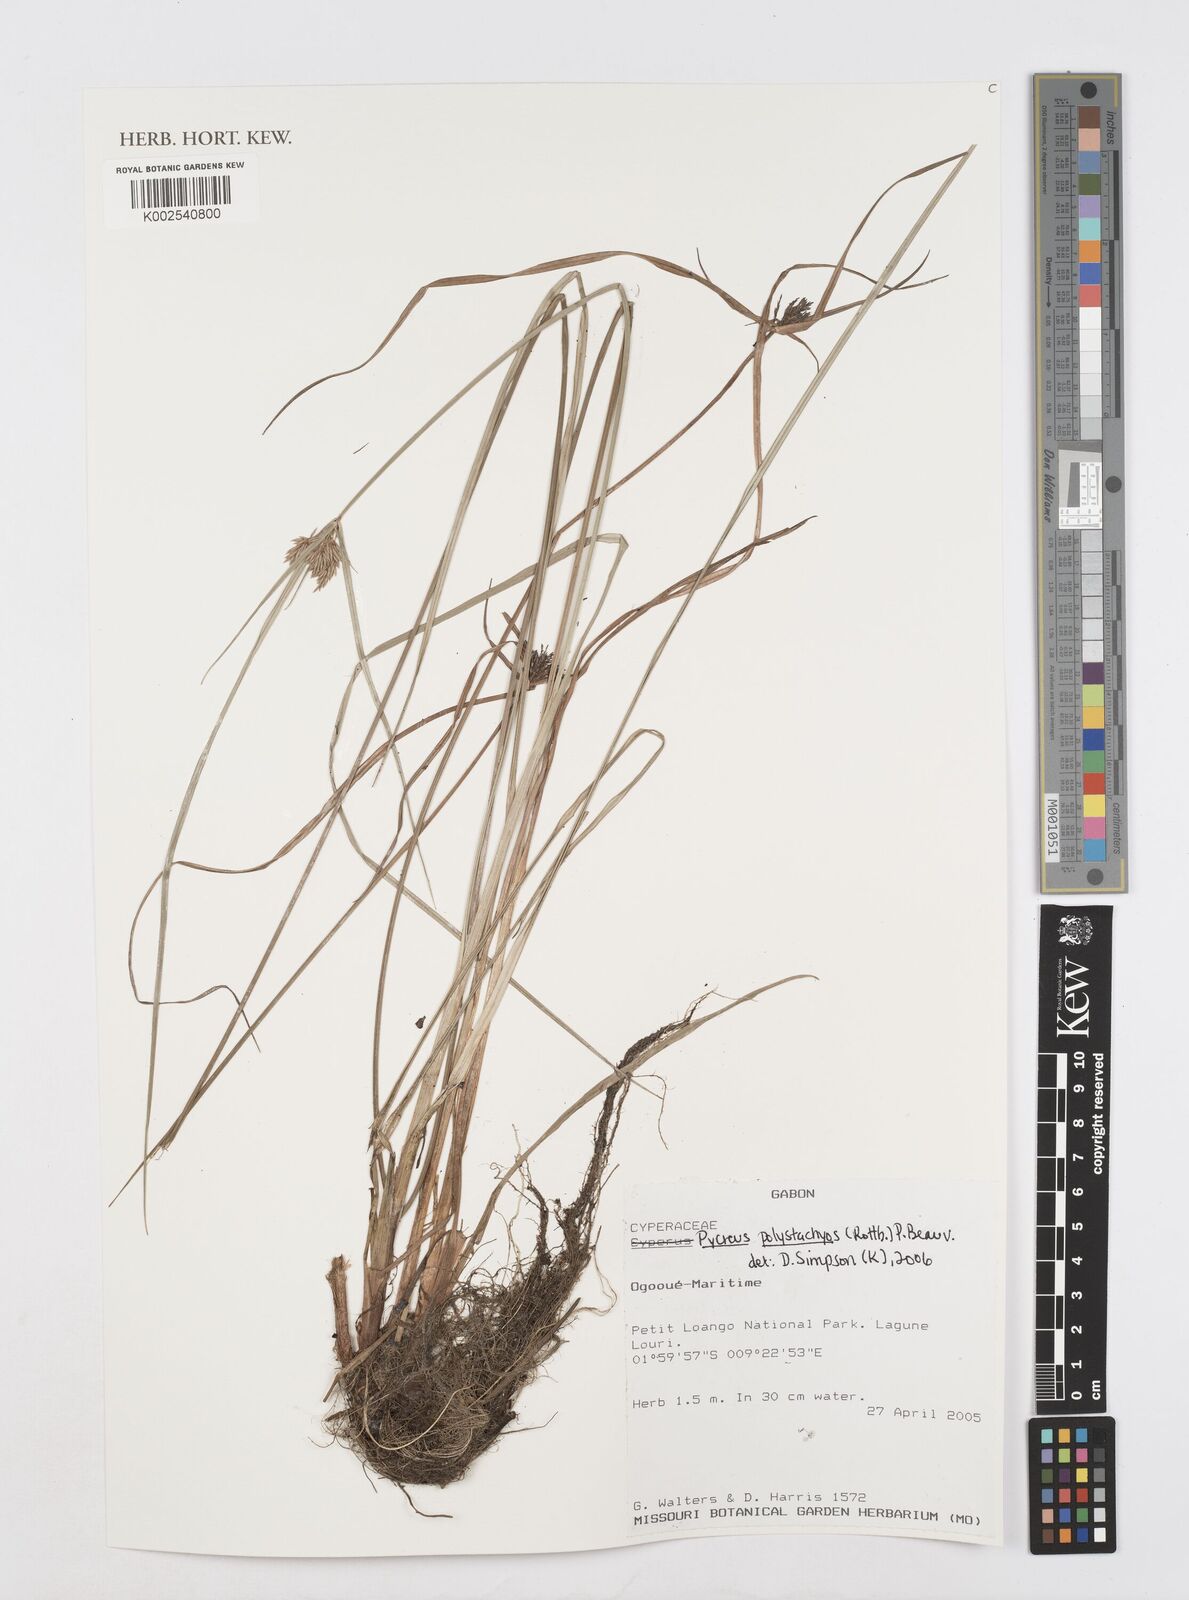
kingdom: Plantae
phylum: Tracheophyta
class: Liliopsida
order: Poales
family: Cyperaceae
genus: Cyperus
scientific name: Cyperus polystachyos
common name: Bunchy flat sedge
